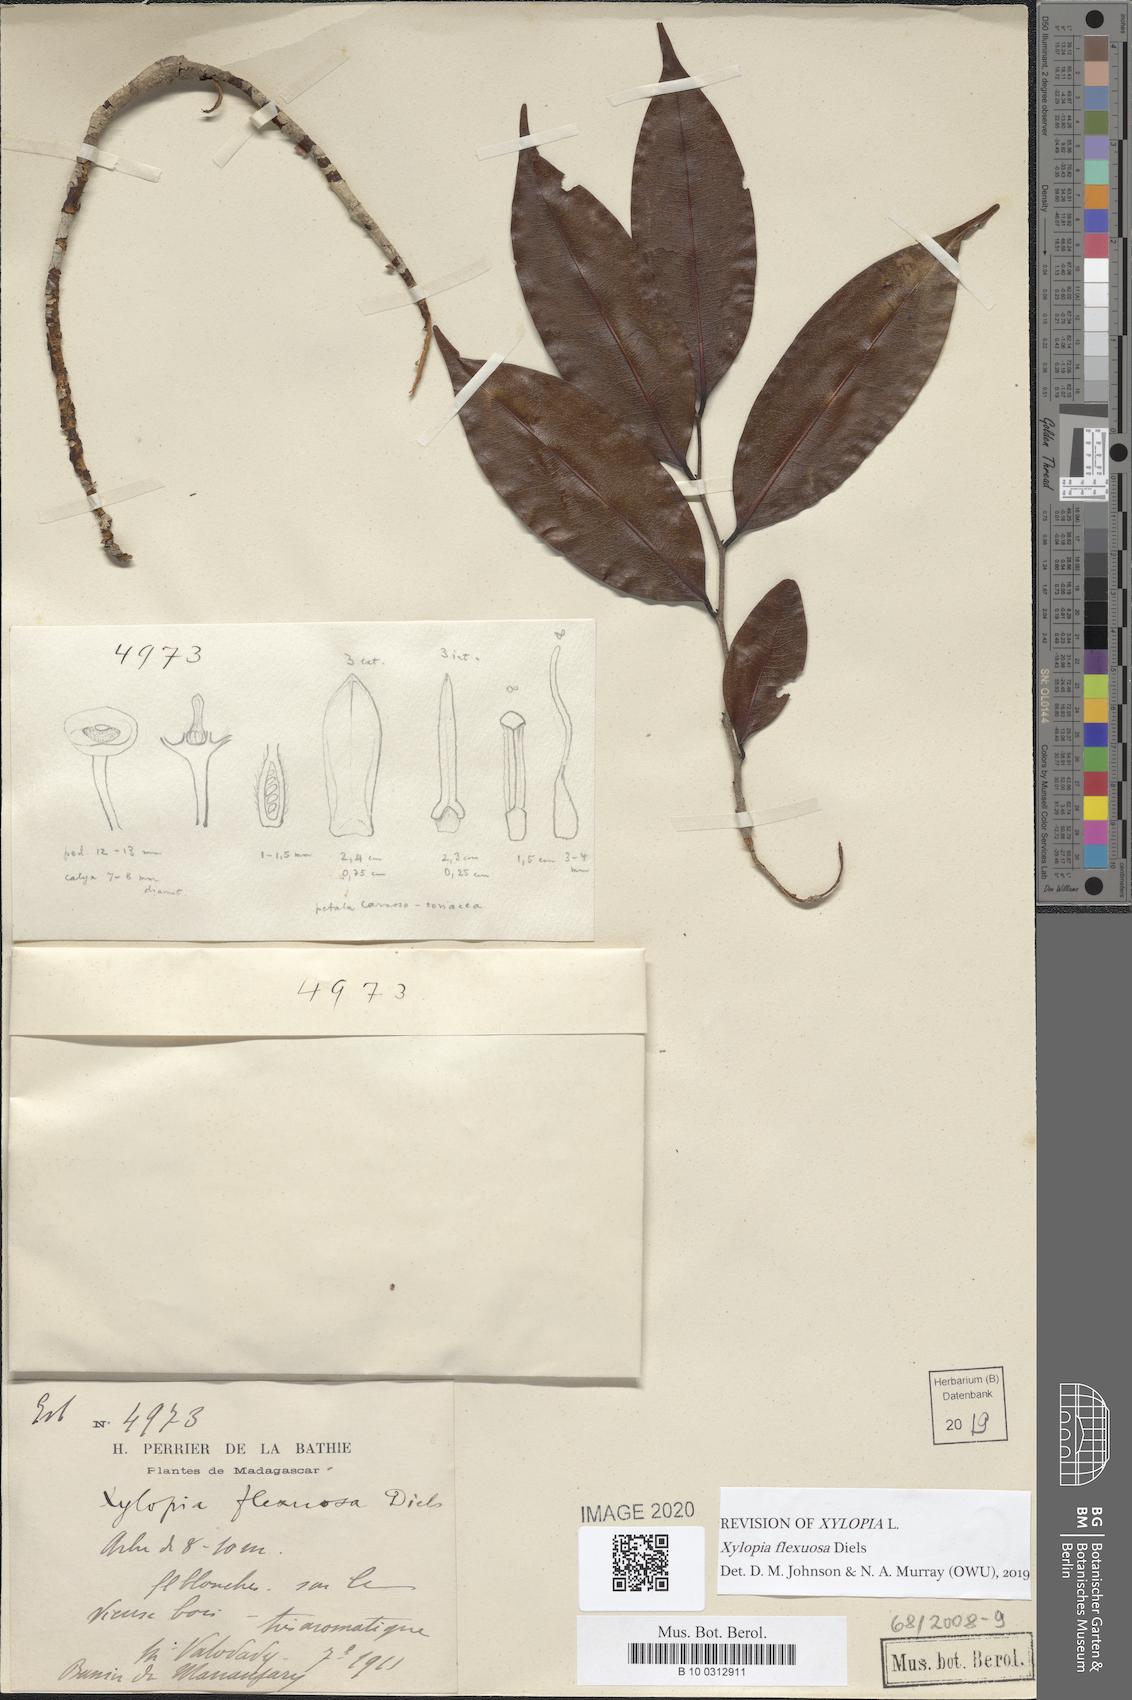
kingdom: Plantae
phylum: Tracheophyta
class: Magnoliopsida
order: Magnoliales
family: Annonaceae
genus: Xylopia
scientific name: Xylopia flexuosa
